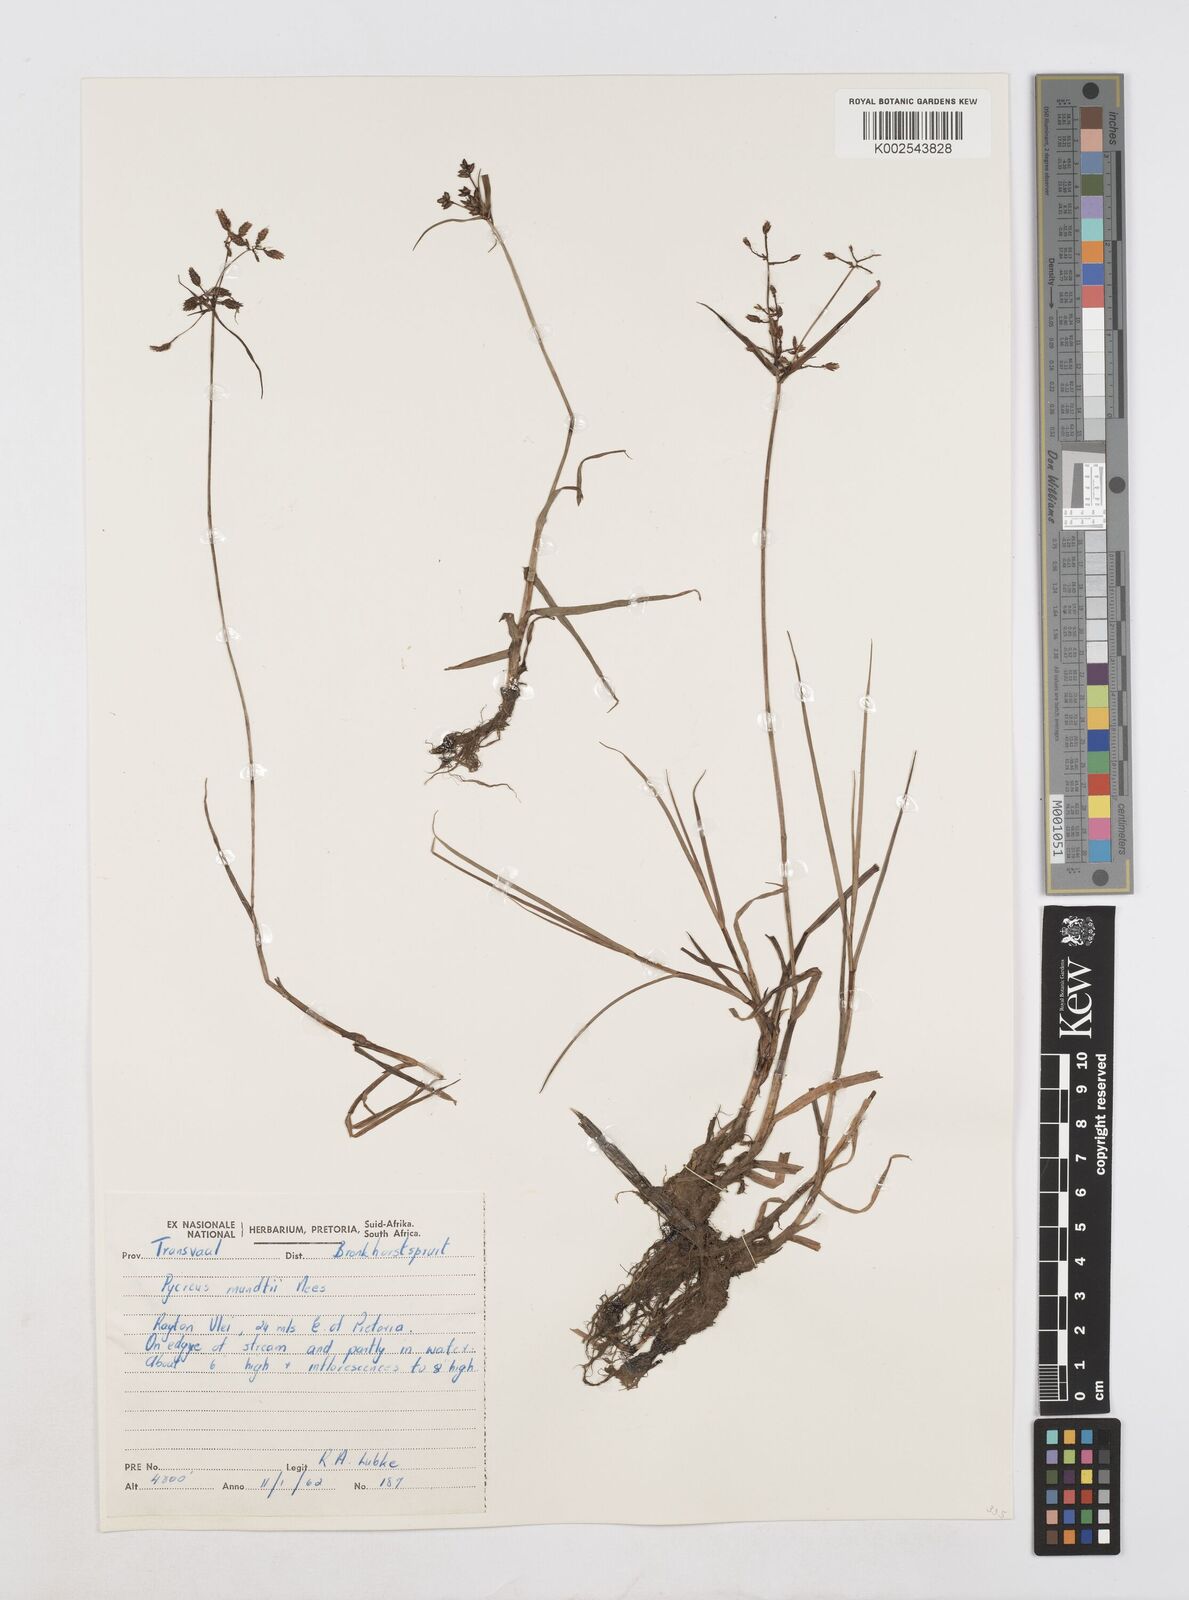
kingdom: Plantae
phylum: Tracheophyta
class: Liliopsida
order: Poales
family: Cyperaceae
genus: Cyperus
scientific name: Cyperus mundii
